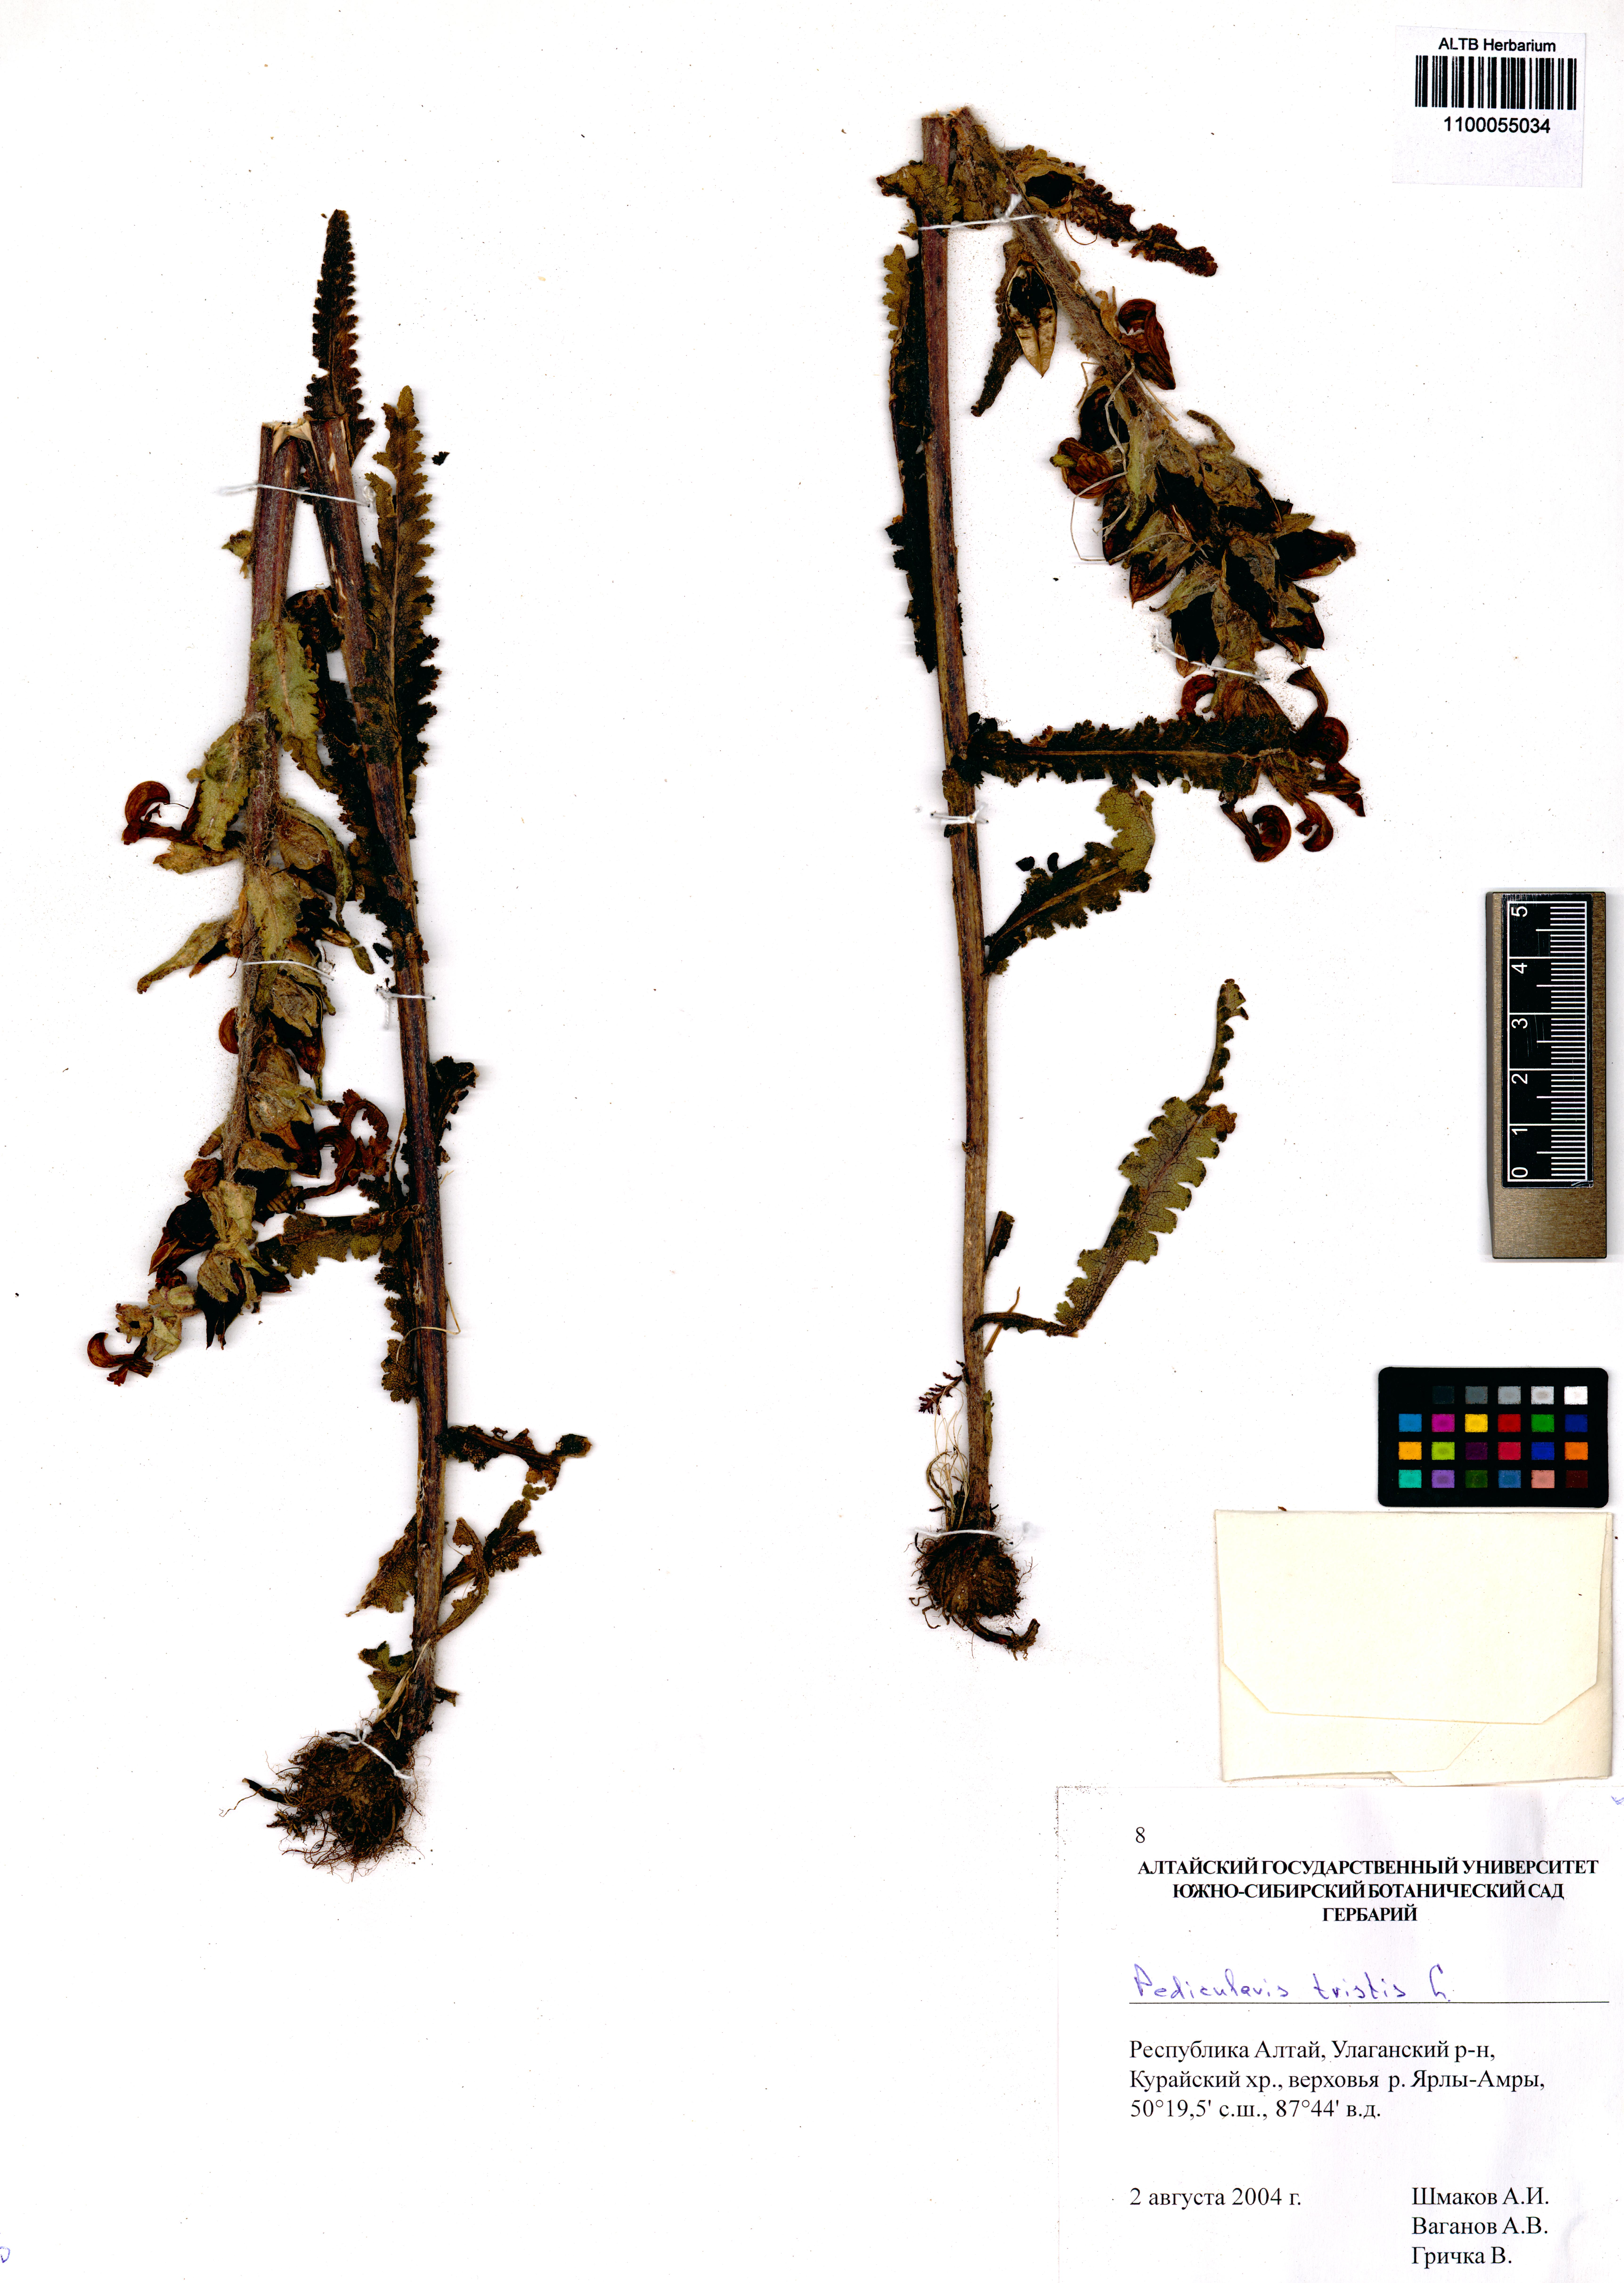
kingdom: Plantae
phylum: Tracheophyta
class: Magnoliopsida
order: Lamiales
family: Orobanchaceae
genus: Pedicularis
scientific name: Pedicularis tristis
